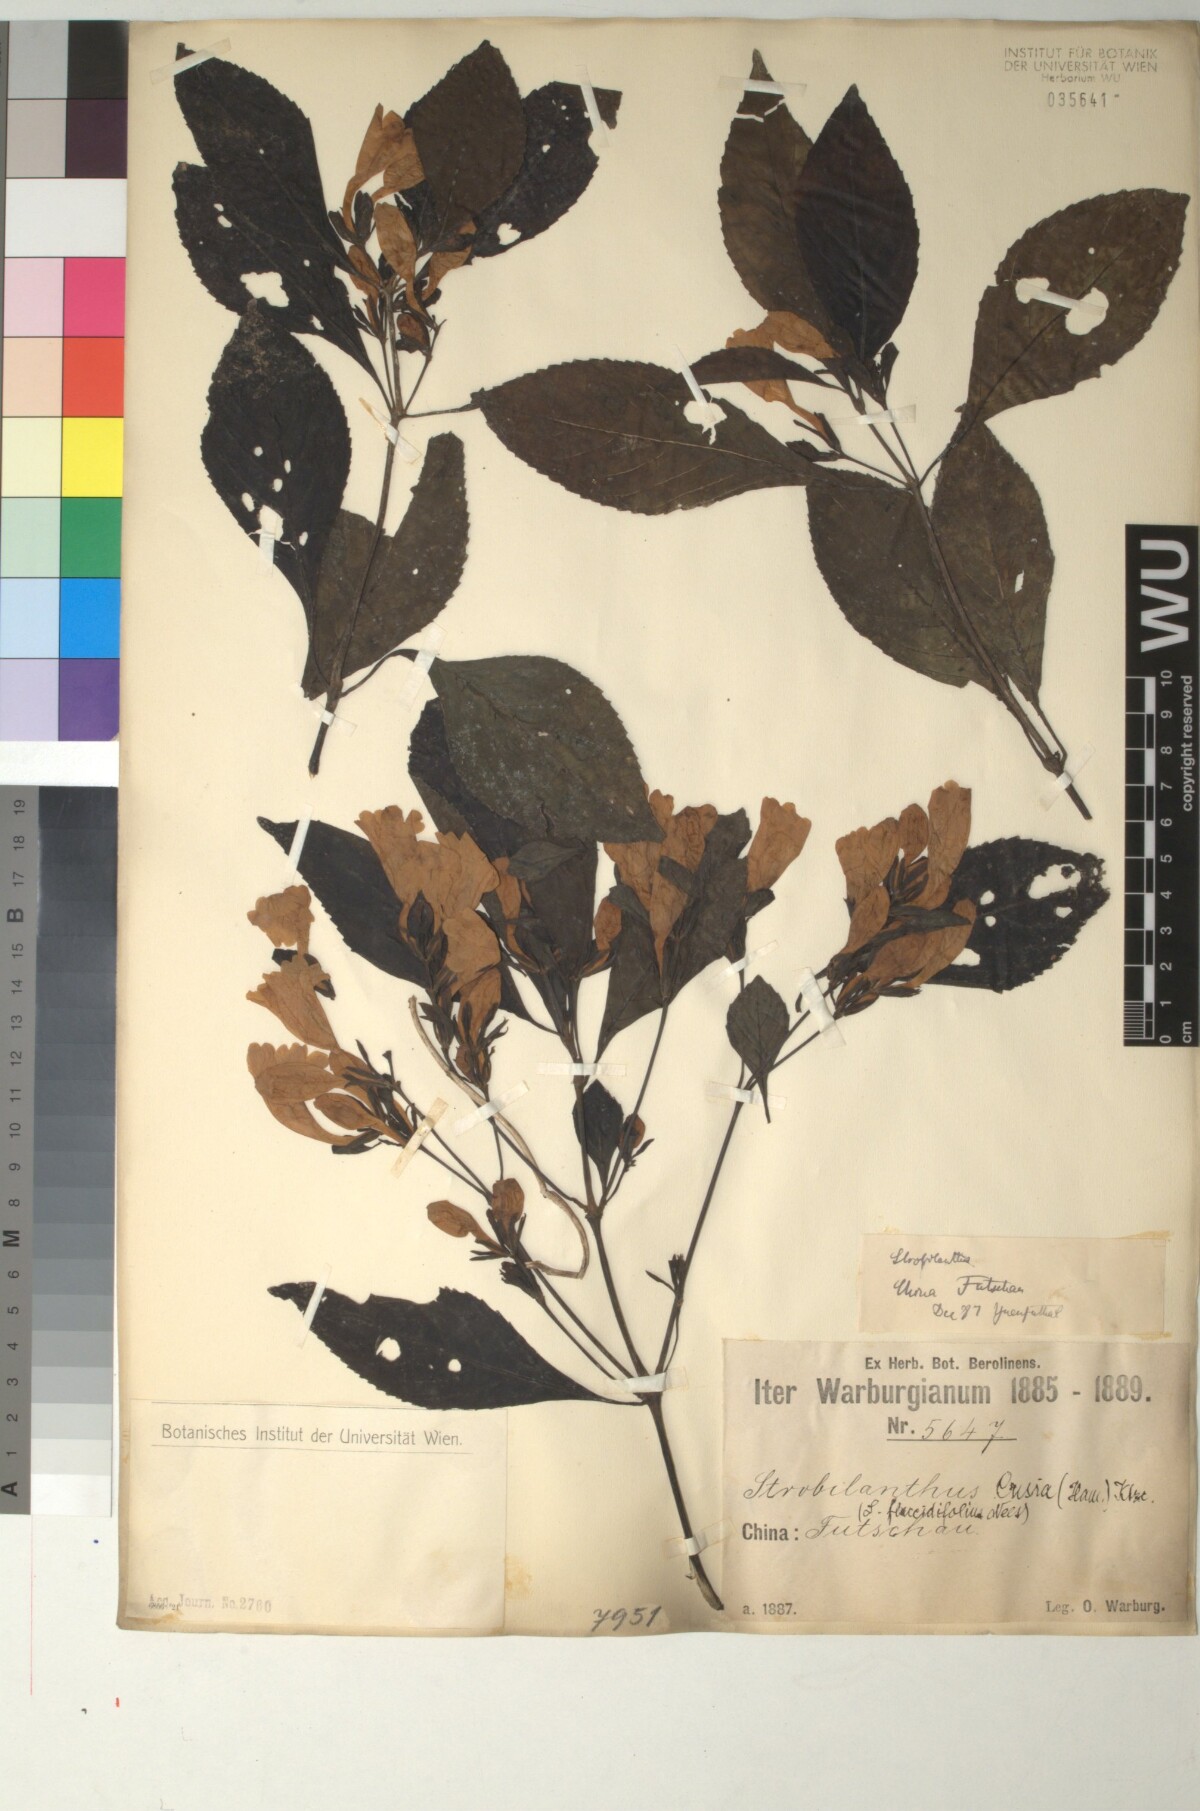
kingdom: Plantae
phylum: Tracheophyta
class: Magnoliopsida
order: Lamiales
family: Acanthaceae
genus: Strobilanthes
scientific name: Strobilanthes cusia
